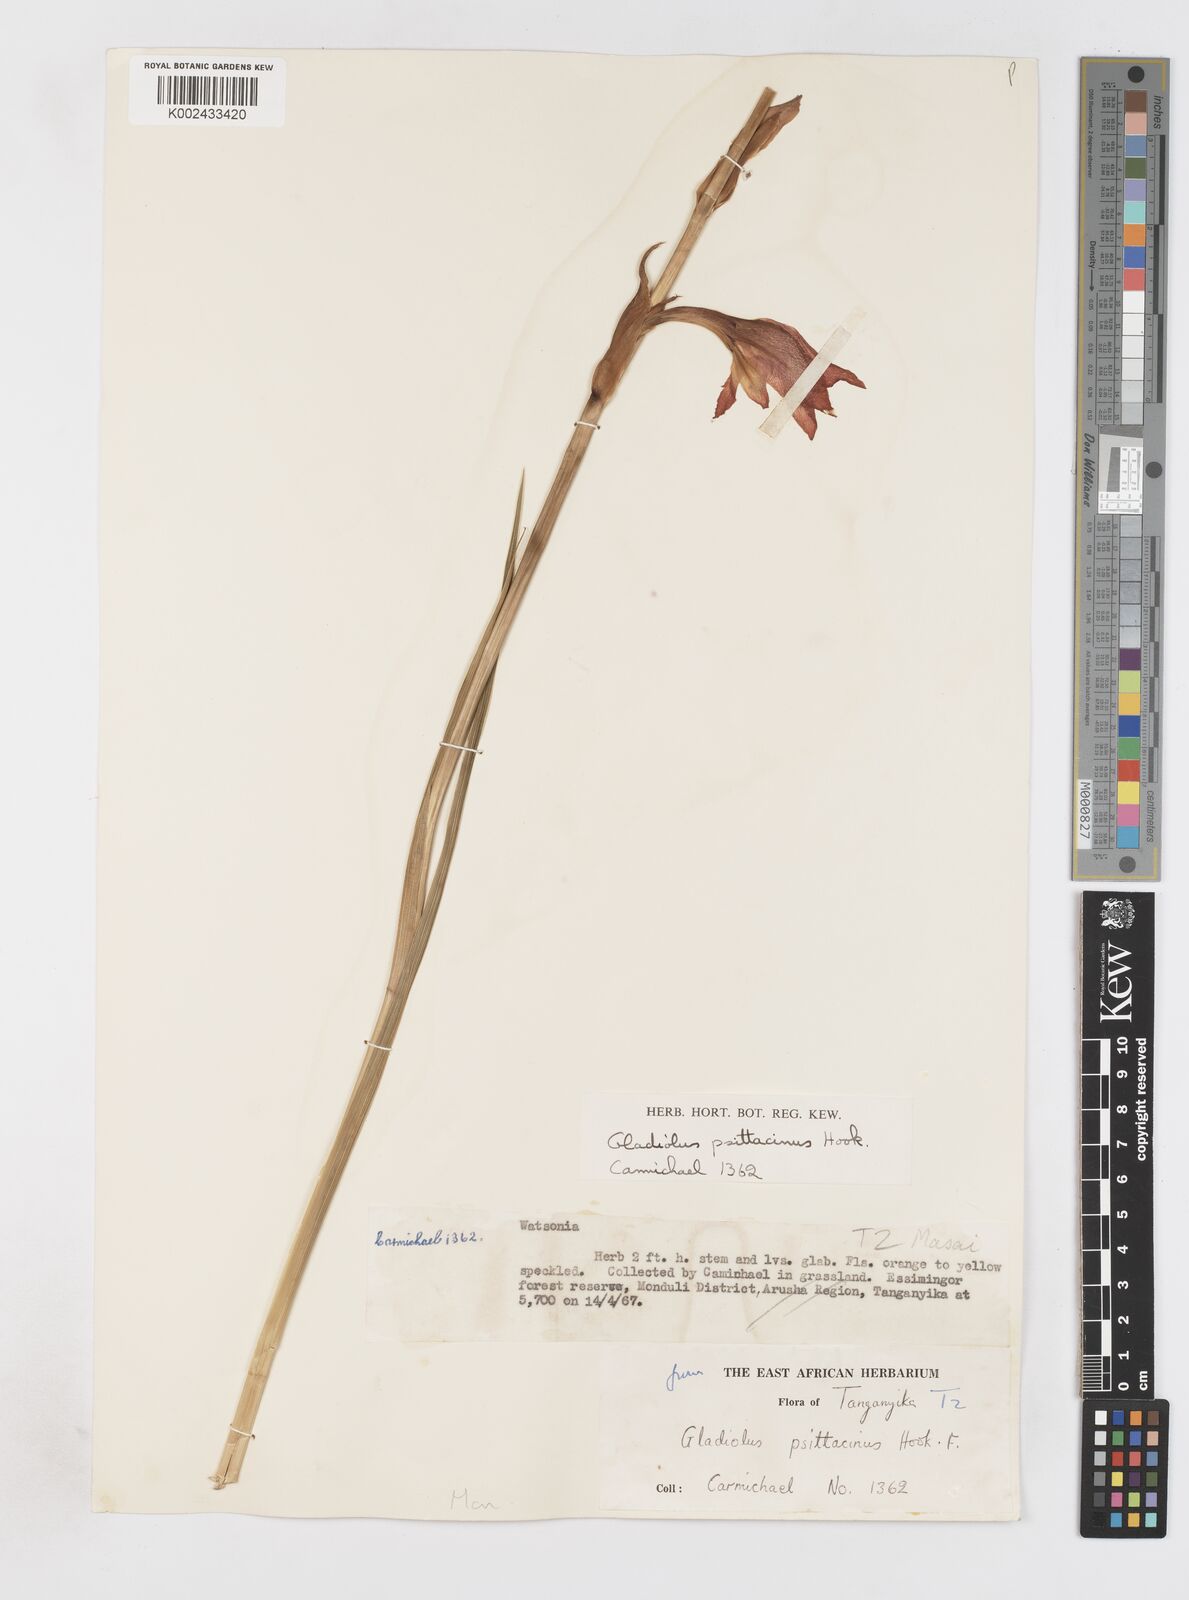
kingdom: Plantae
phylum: Tracheophyta
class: Liliopsida
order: Asparagales
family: Iridaceae
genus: Gladiolus
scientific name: Gladiolus dalenii
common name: Cornflag
